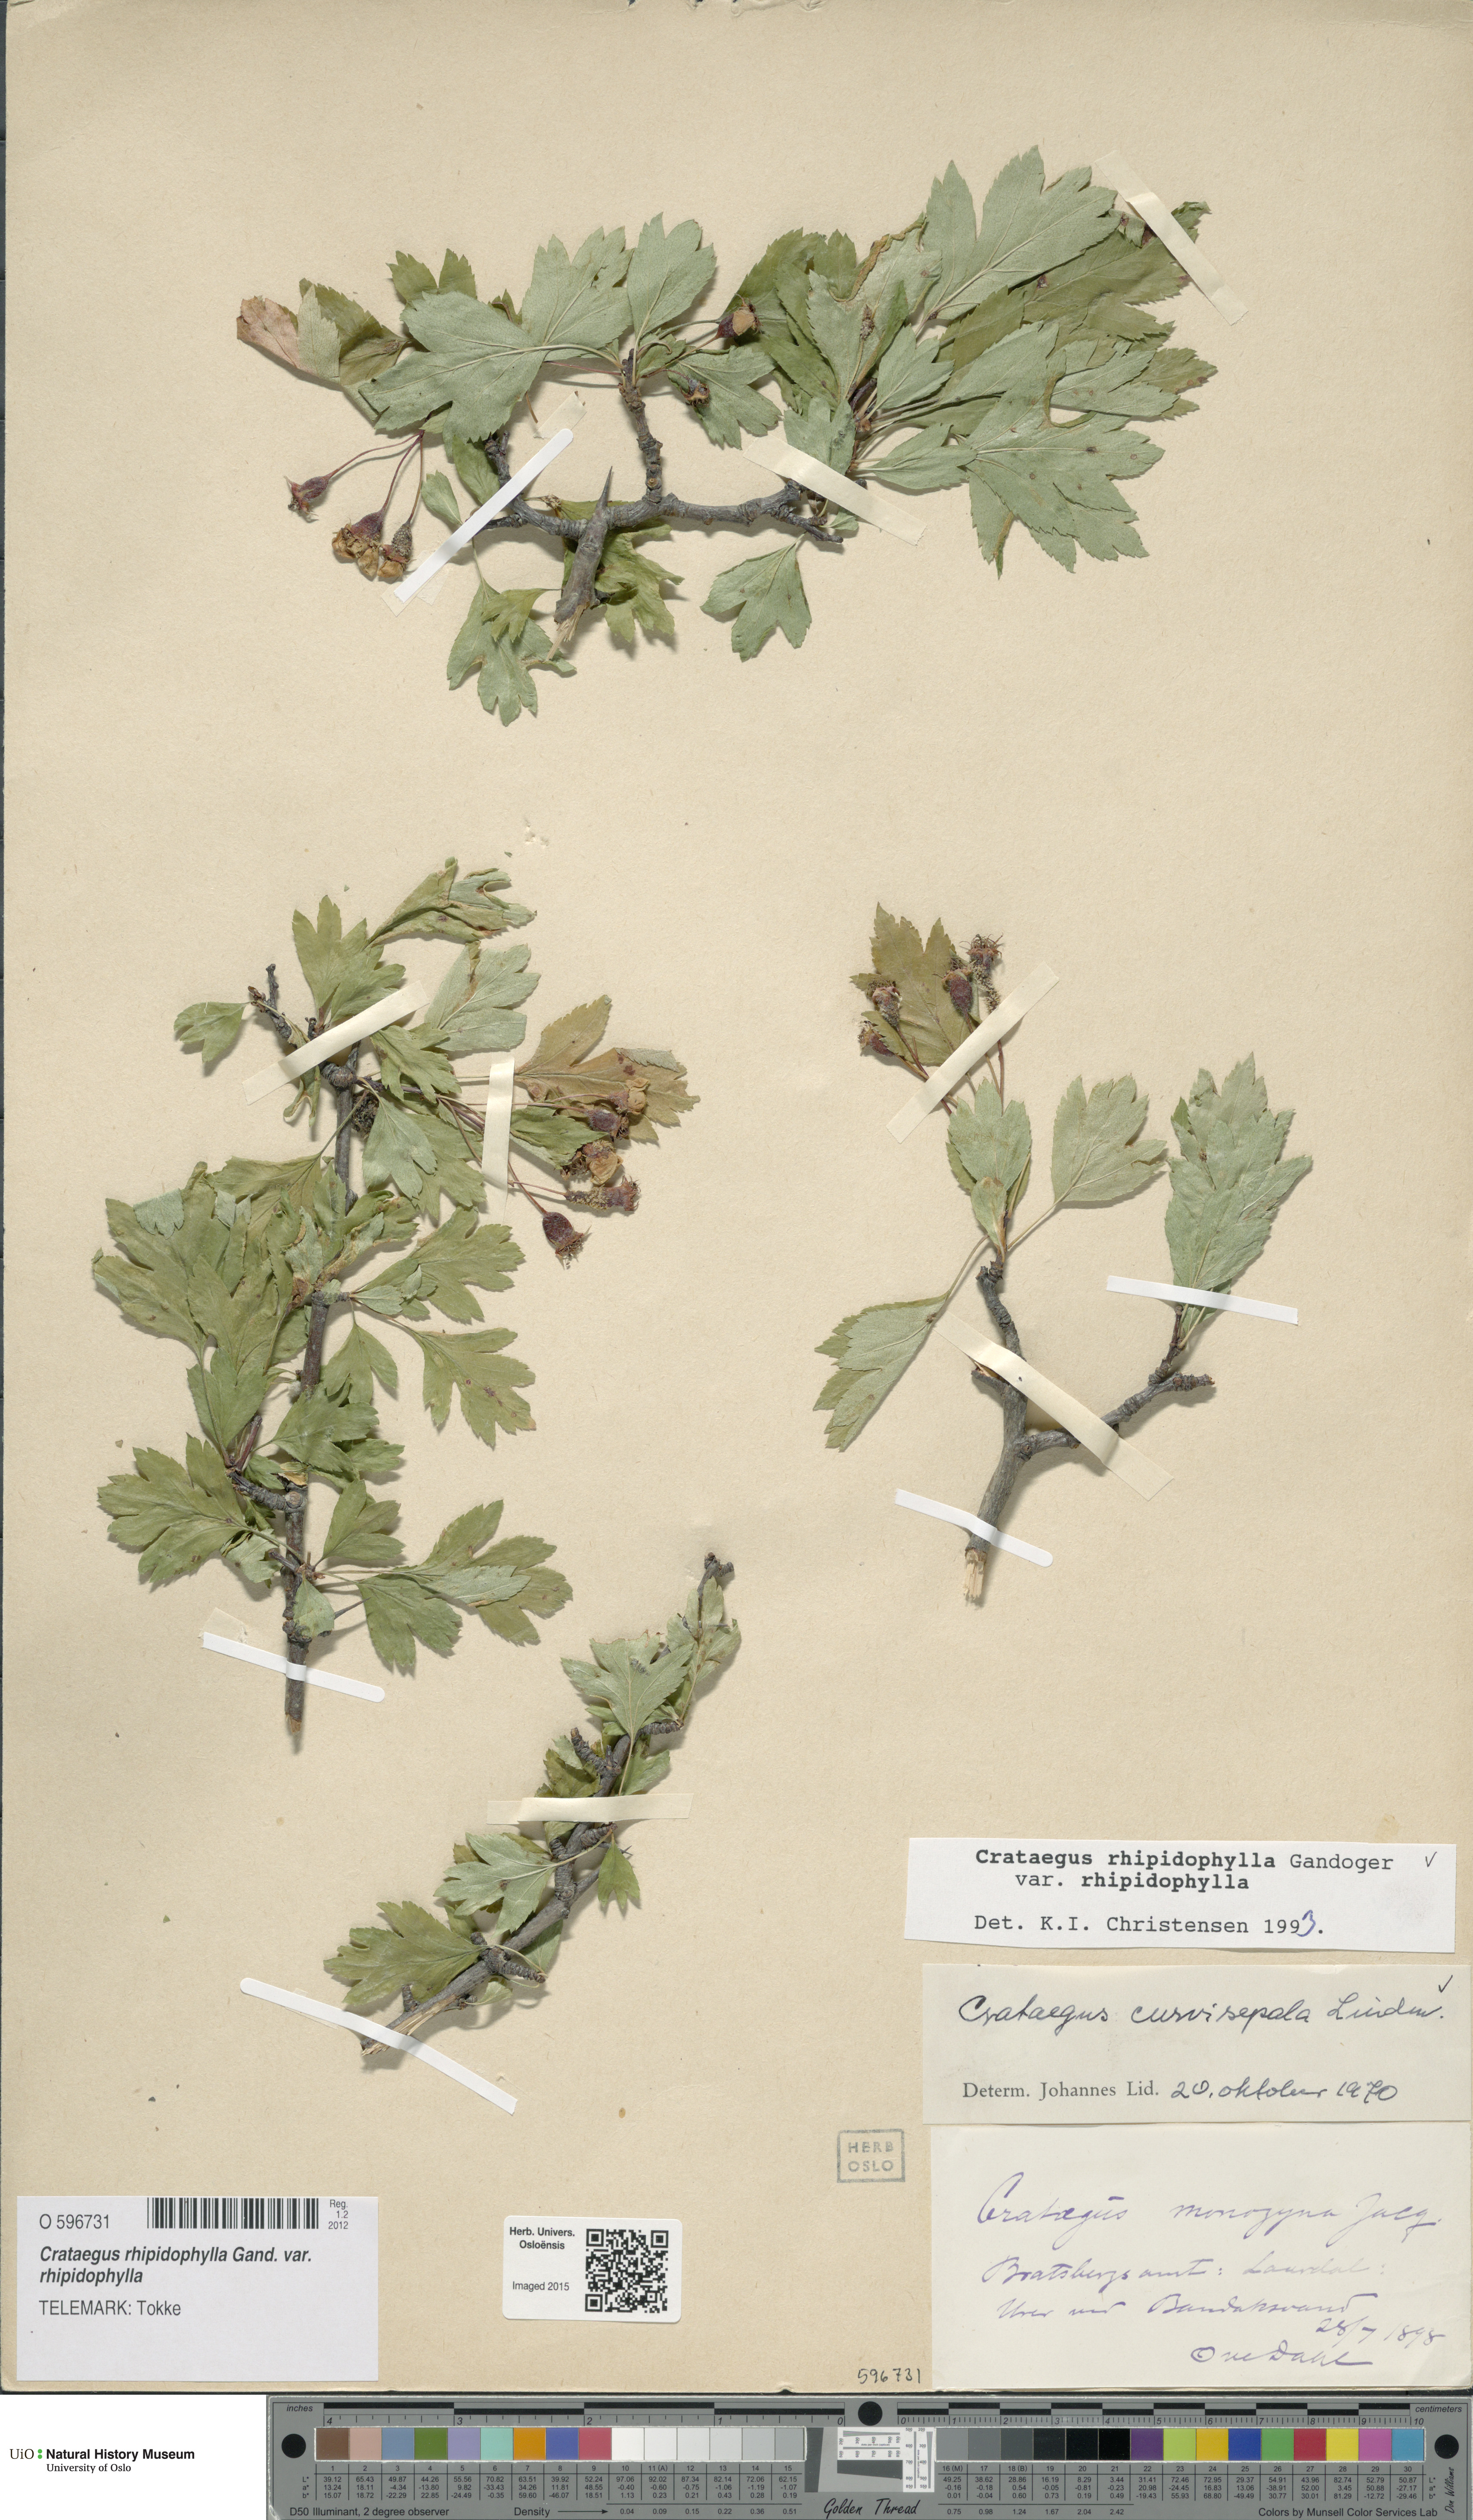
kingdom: Plantae
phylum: Tracheophyta
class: Magnoliopsida
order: Rosales
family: Rosaceae
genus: Crataegus
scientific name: Crataegus rhipidophylla
